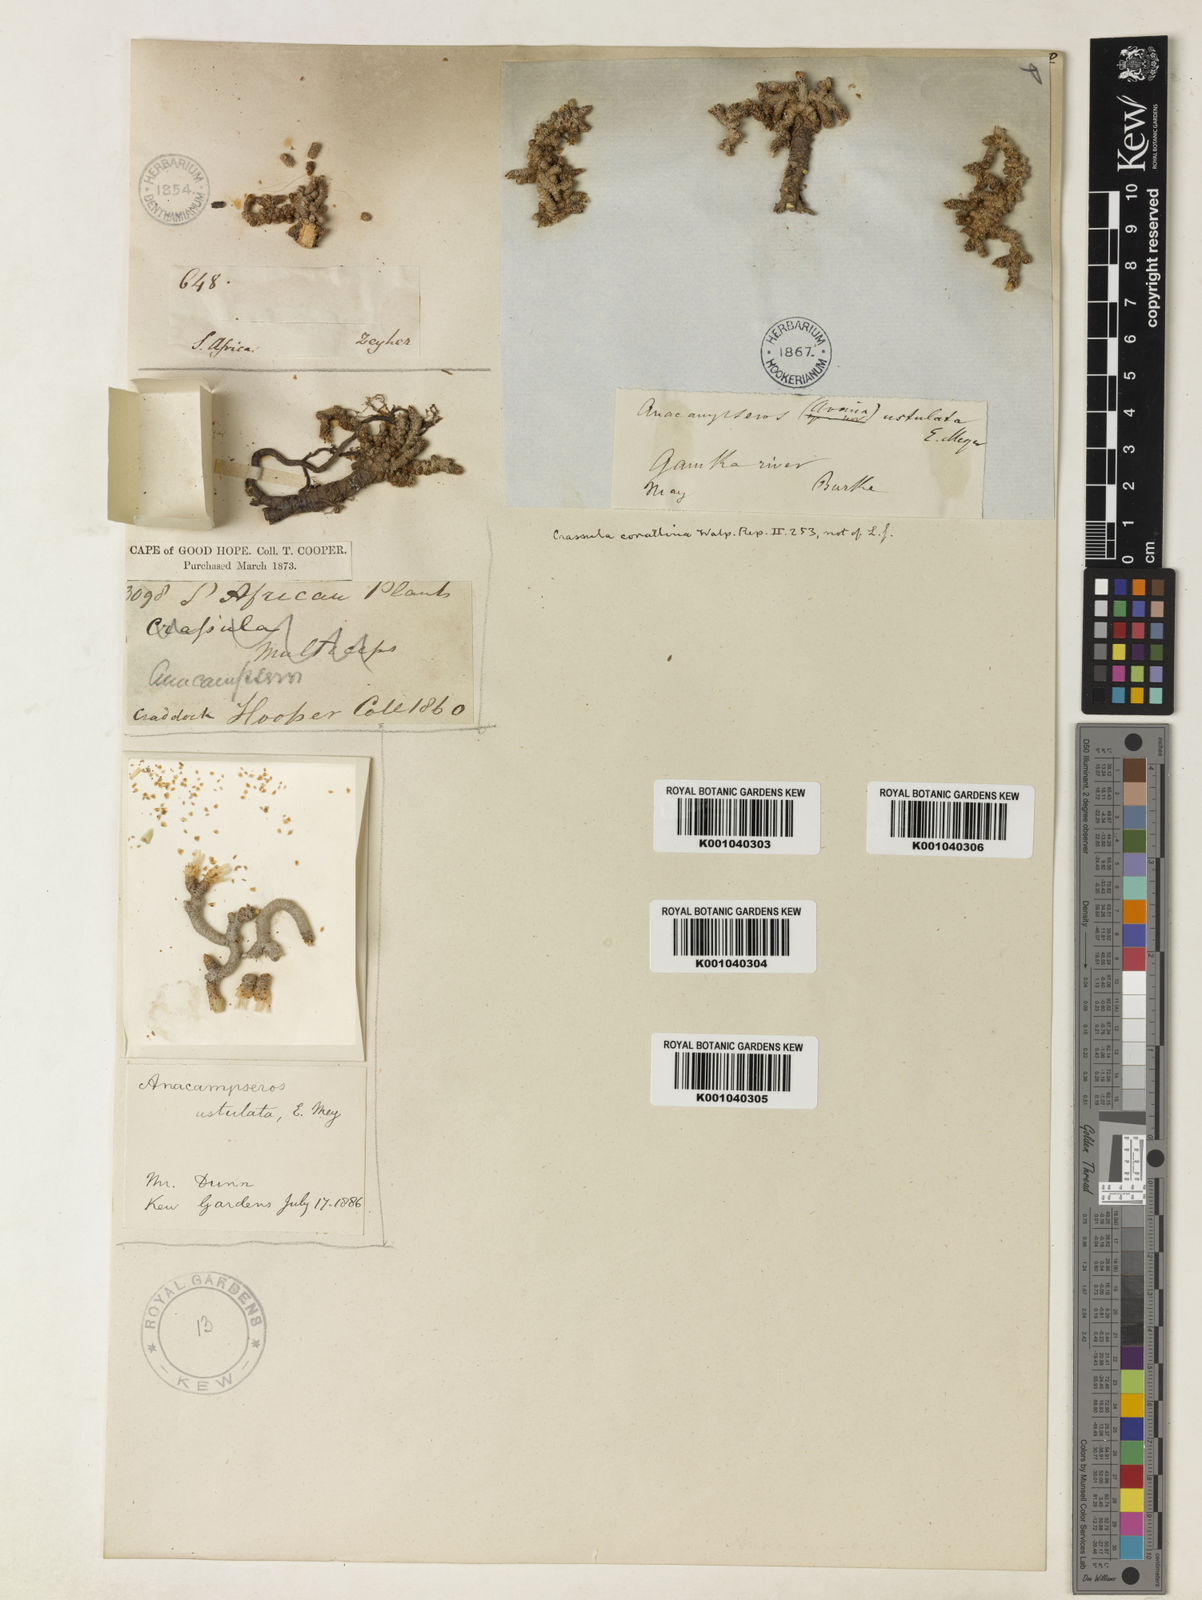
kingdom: Plantae
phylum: Tracheophyta
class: Magnoliopsida
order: Caryophyllales
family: Anacampserotaceae
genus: Anacampseros
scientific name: Anacampseros
